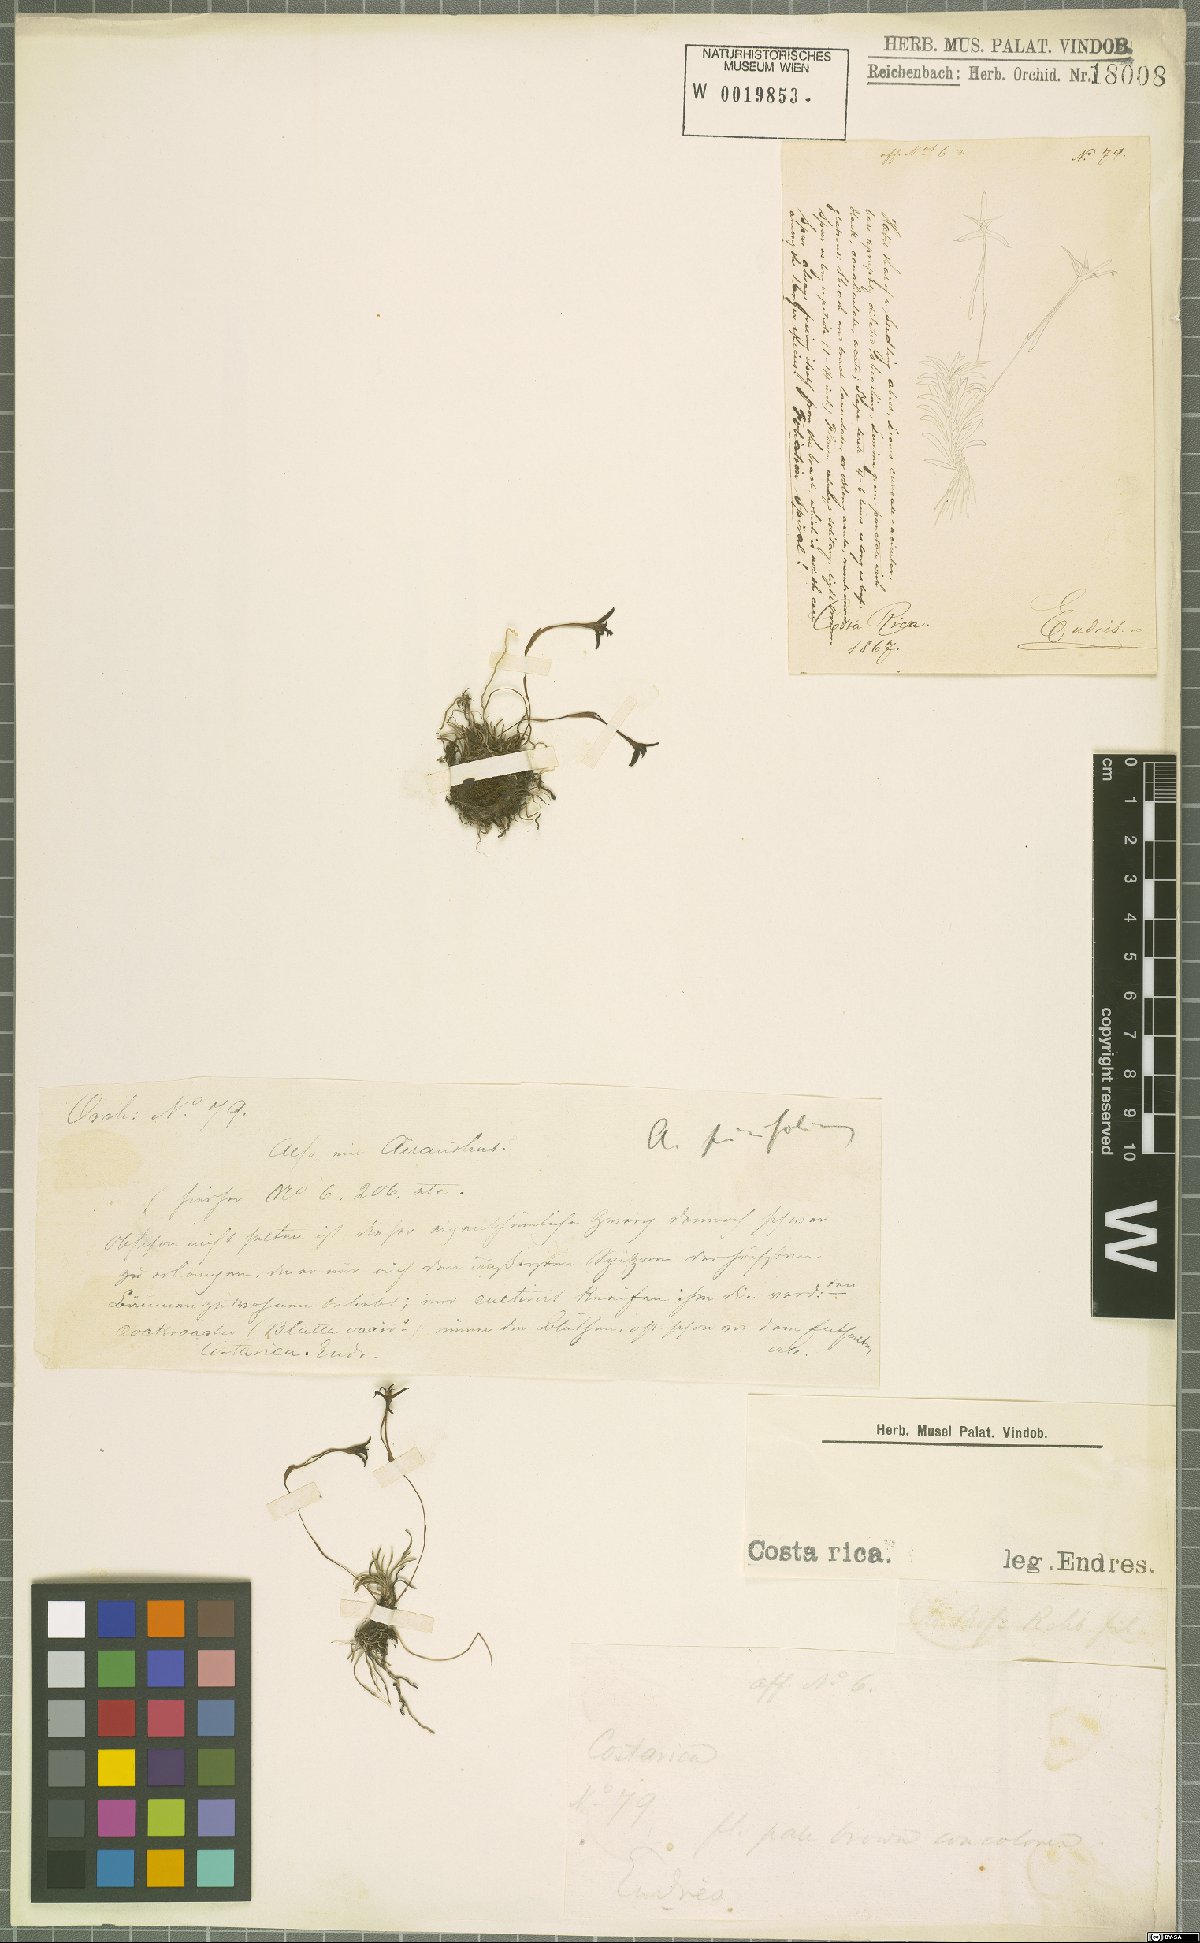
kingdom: Plantae
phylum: Tracheophyta
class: Liliopsida
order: Asparagales
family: Orchidaceae
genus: Maxillaria
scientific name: Maxillaria standleyi
